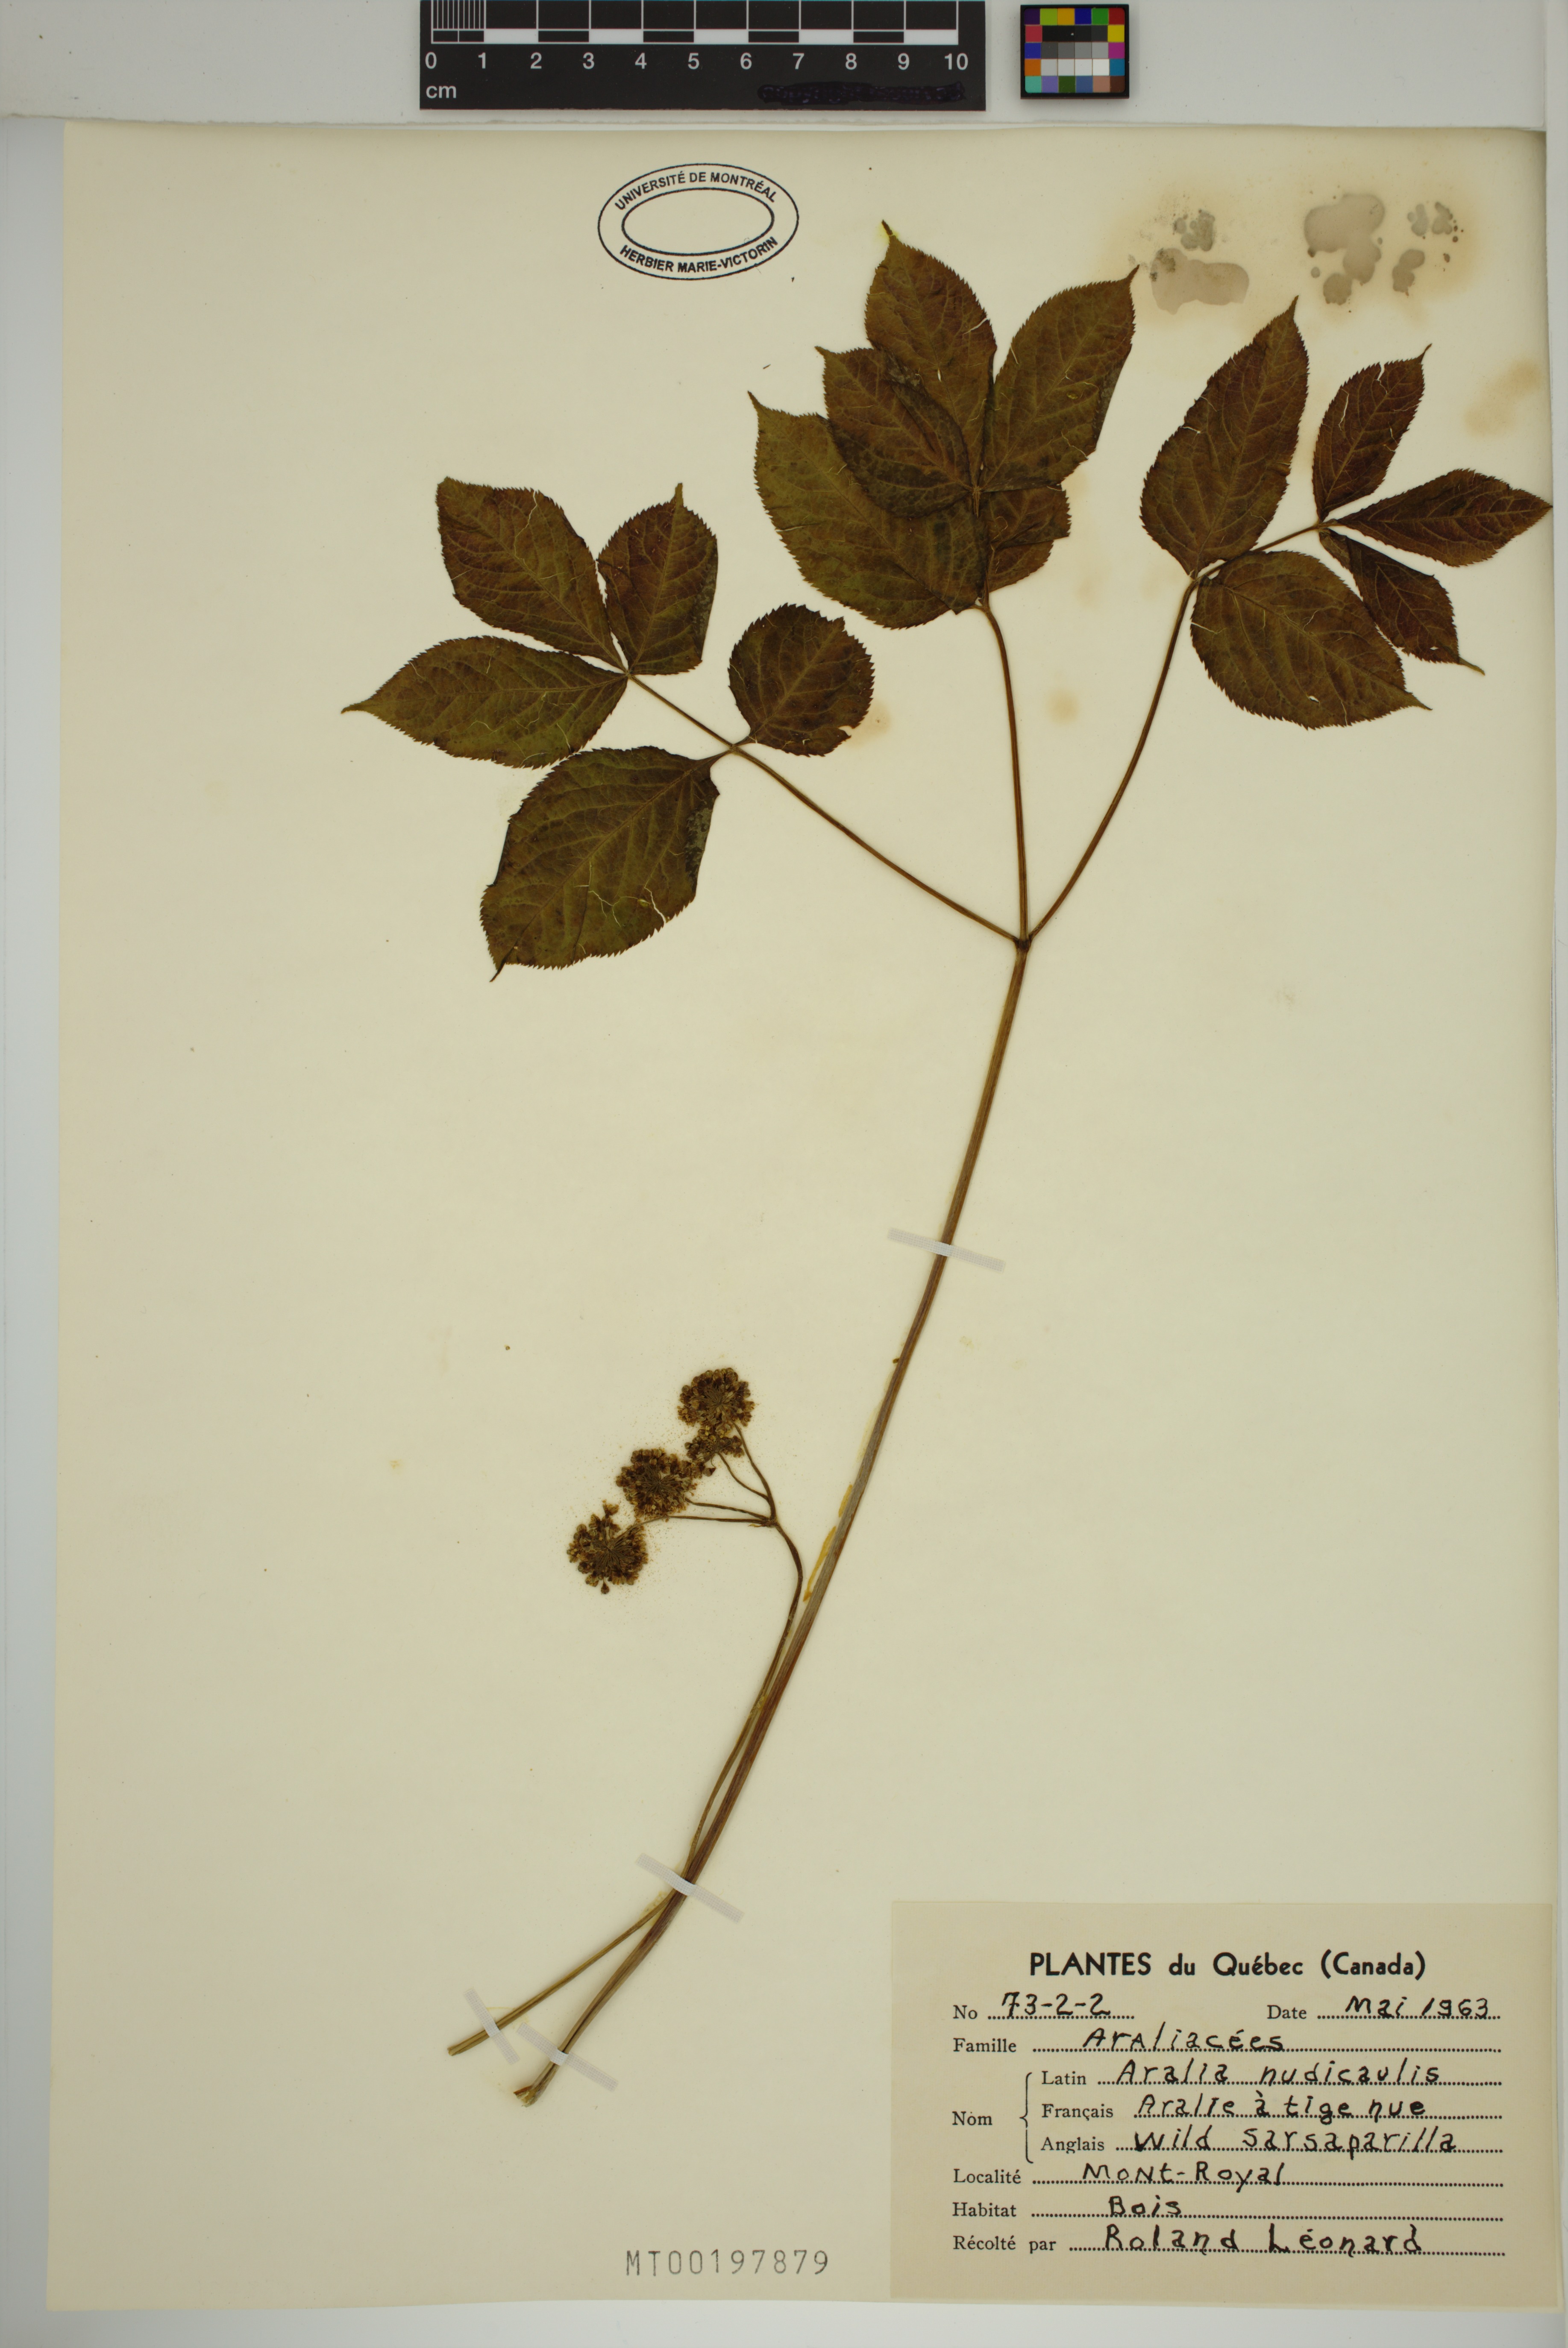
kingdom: Plantae
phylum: Tracheophyta
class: Magnoliopsida
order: Apiales
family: Araliaceae
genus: Aralia
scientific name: Aralia nudicaulis
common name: Wild sarsaparilla
